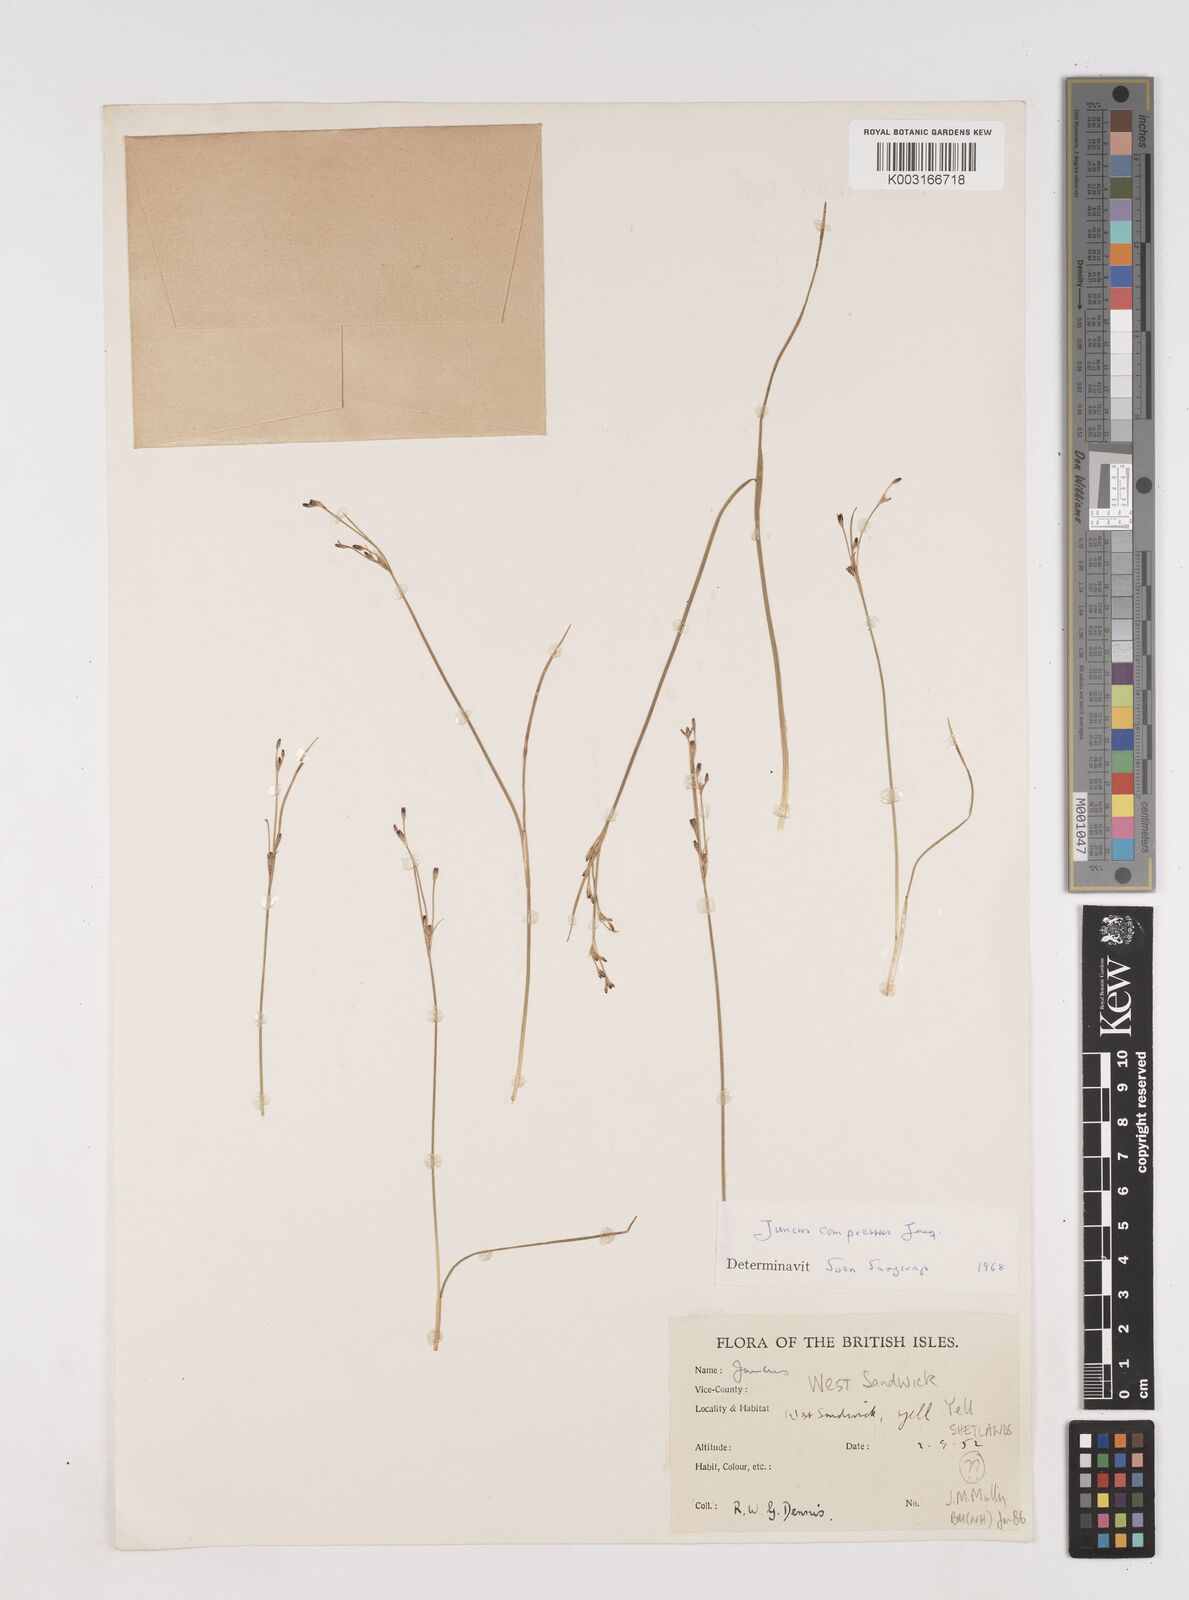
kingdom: Plantae
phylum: Tracheophyta
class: Liliopsida
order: Poales
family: Juncaceae
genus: Juncus
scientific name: Juncus compressus
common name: Round-fruited rush
